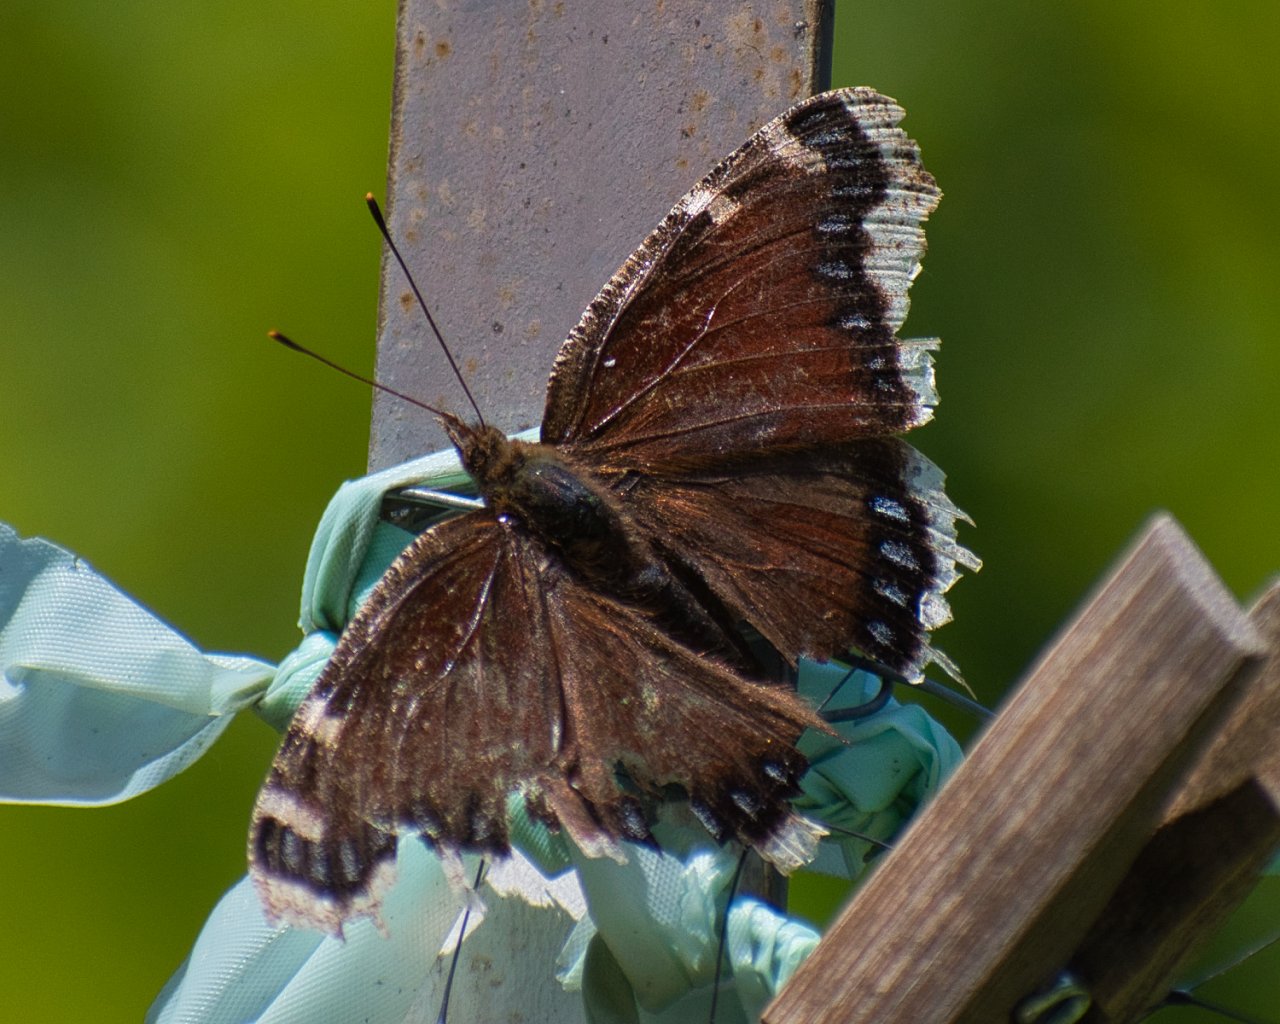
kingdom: Animalia
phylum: Arthropoda
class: Insecta
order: Lepidoptera
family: Nymphalidae
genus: Nymphalis
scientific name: Nymphalis antiopa
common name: Mourning Cloak
